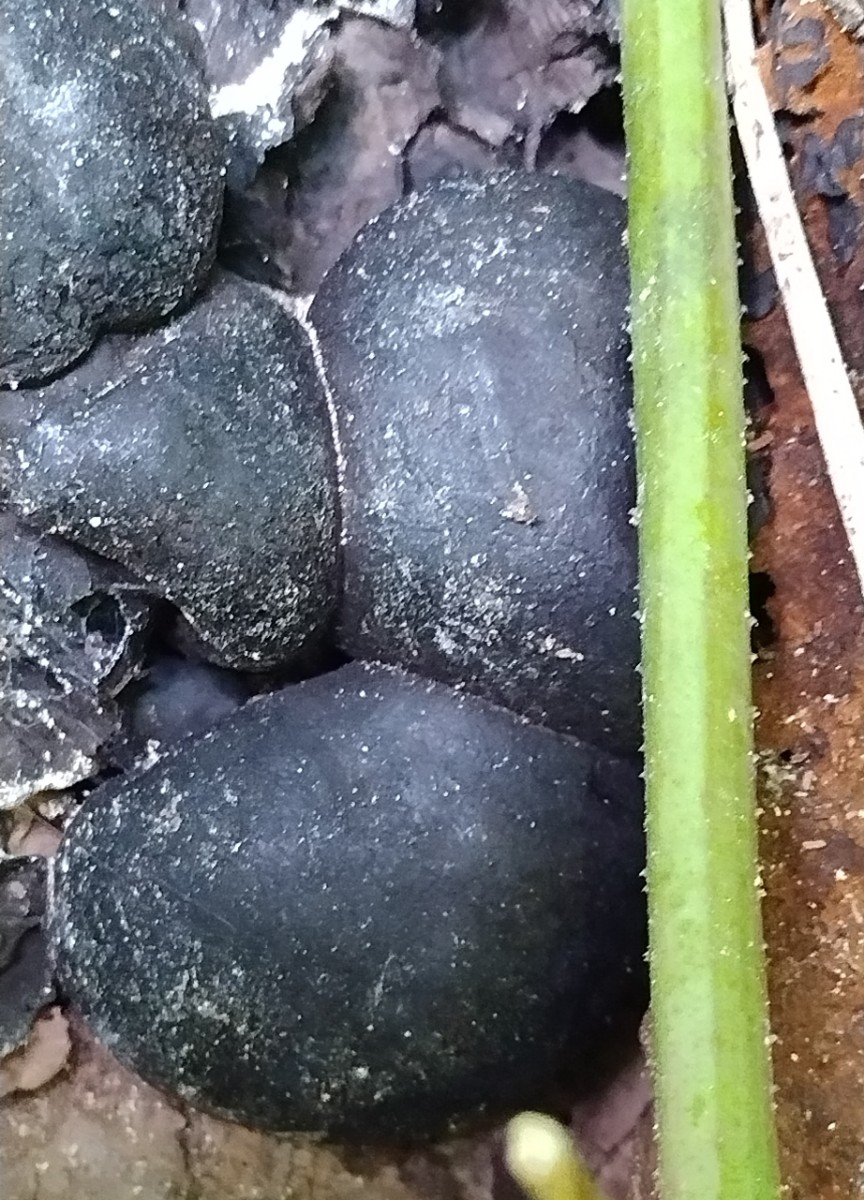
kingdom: Fungi
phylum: Ascomycota
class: Sordariomycetes
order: Xylariales
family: Hypoxylaceae
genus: Daldinia
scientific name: Daldinia concentrica
